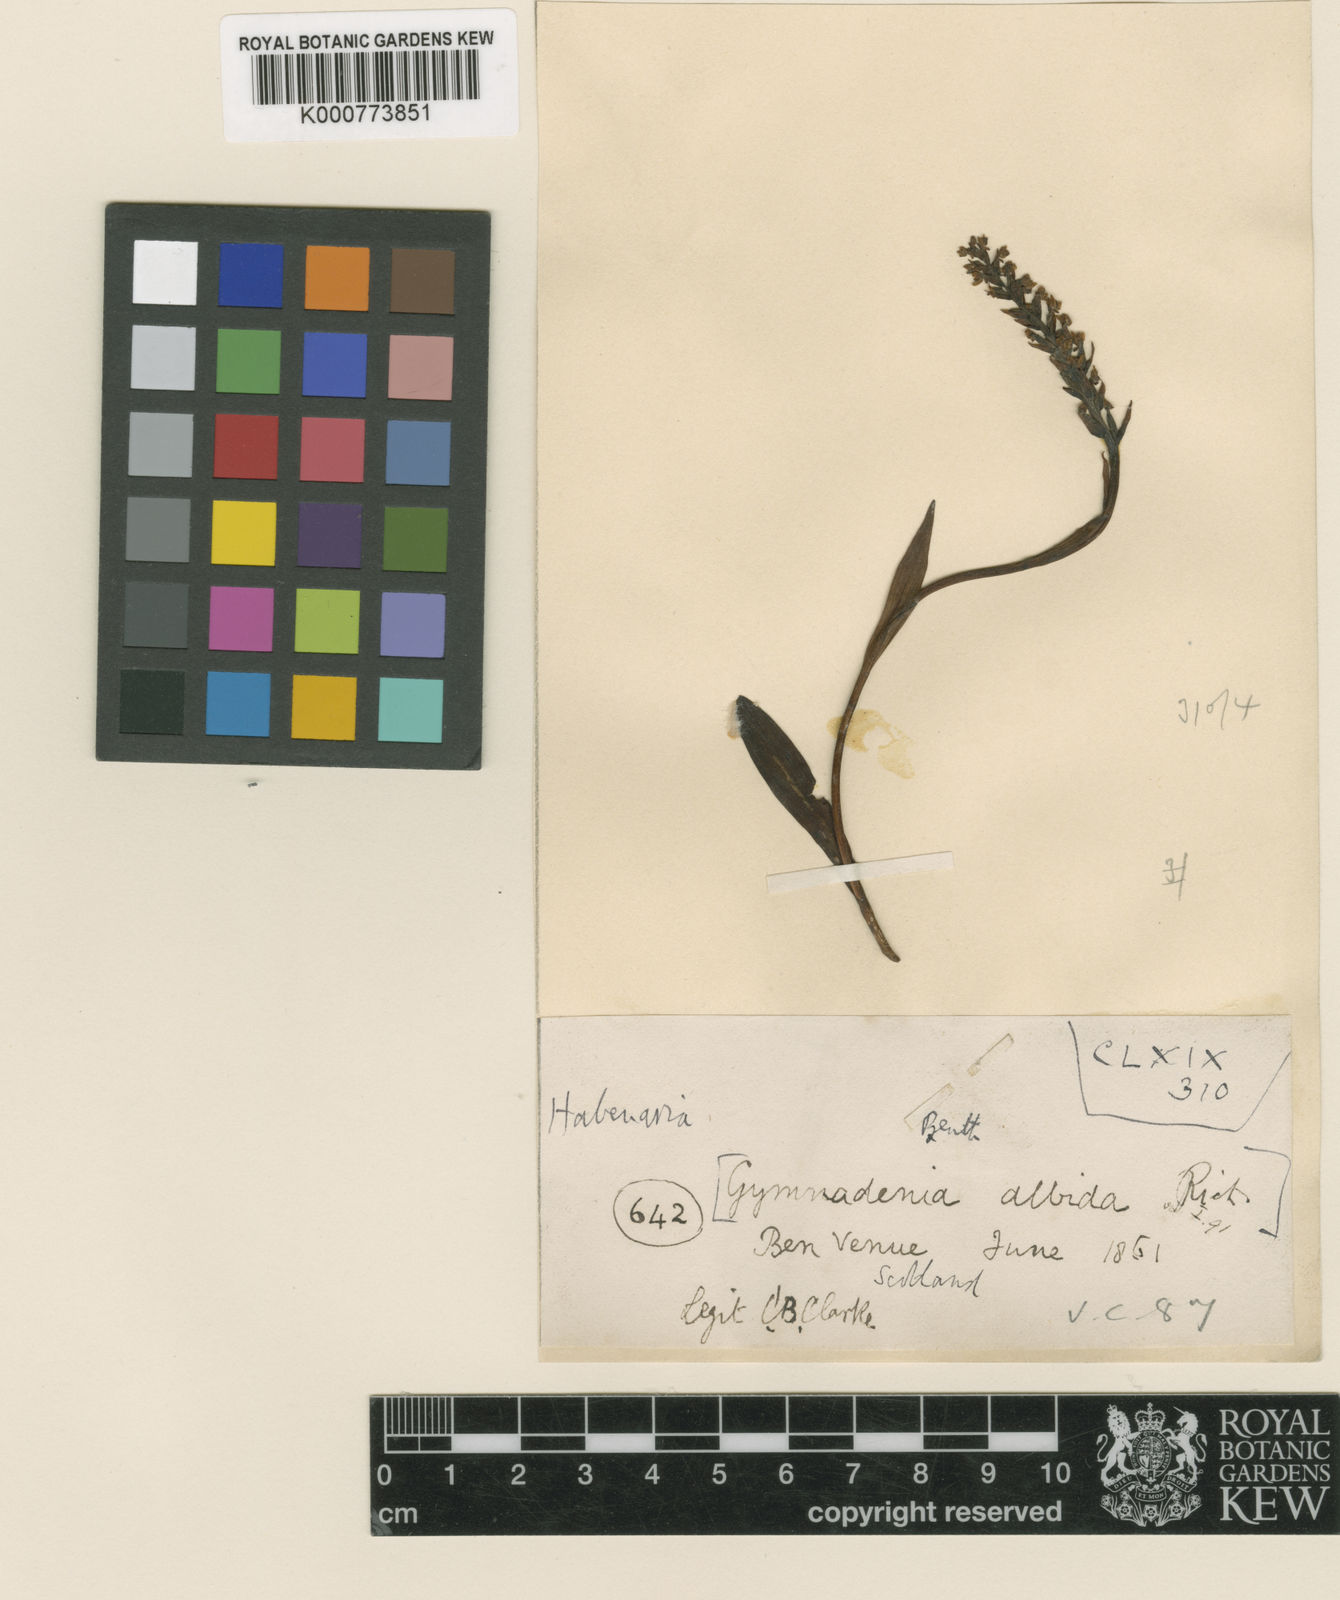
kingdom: Plantae
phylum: Tracheophyta
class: Liliopsida
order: Asparagales
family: Orchidaceae
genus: Pseudorchis
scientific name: Pseudorchis
